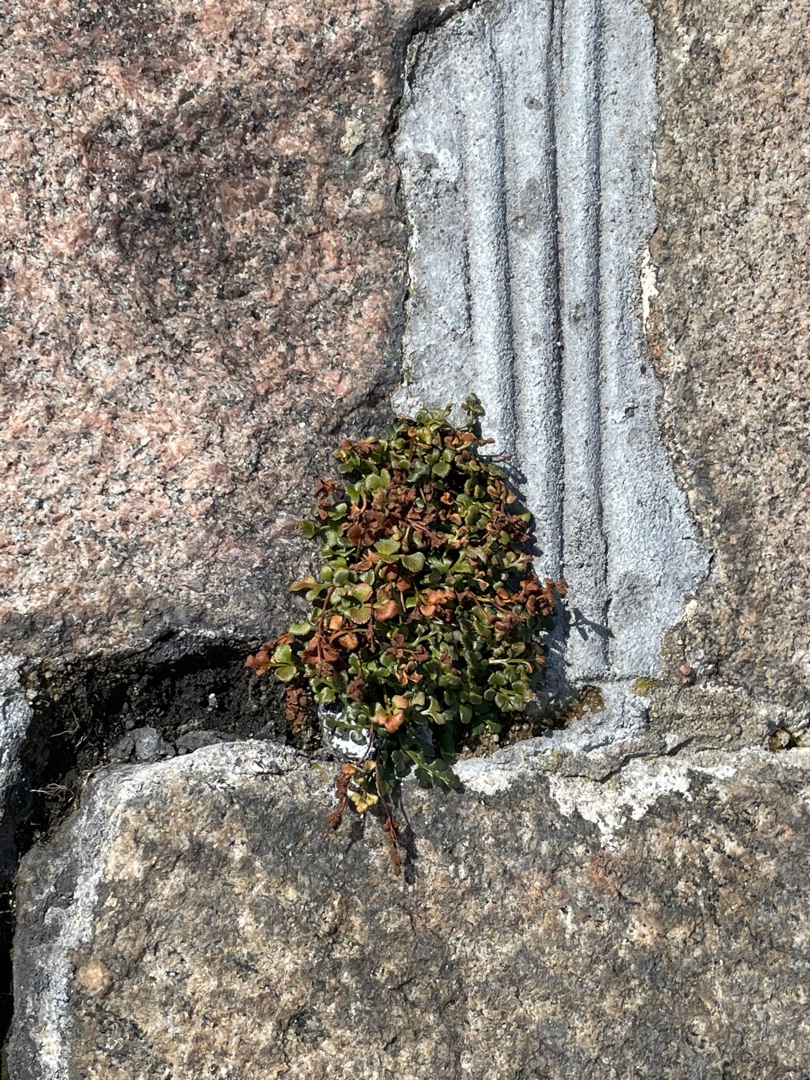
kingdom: Plantae
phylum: Tracheophyta
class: Polypodiopsida
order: Polypodiales
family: Aspleniaceae
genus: Asplenium
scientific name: Asplenium ruta-muraria
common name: Murrude
